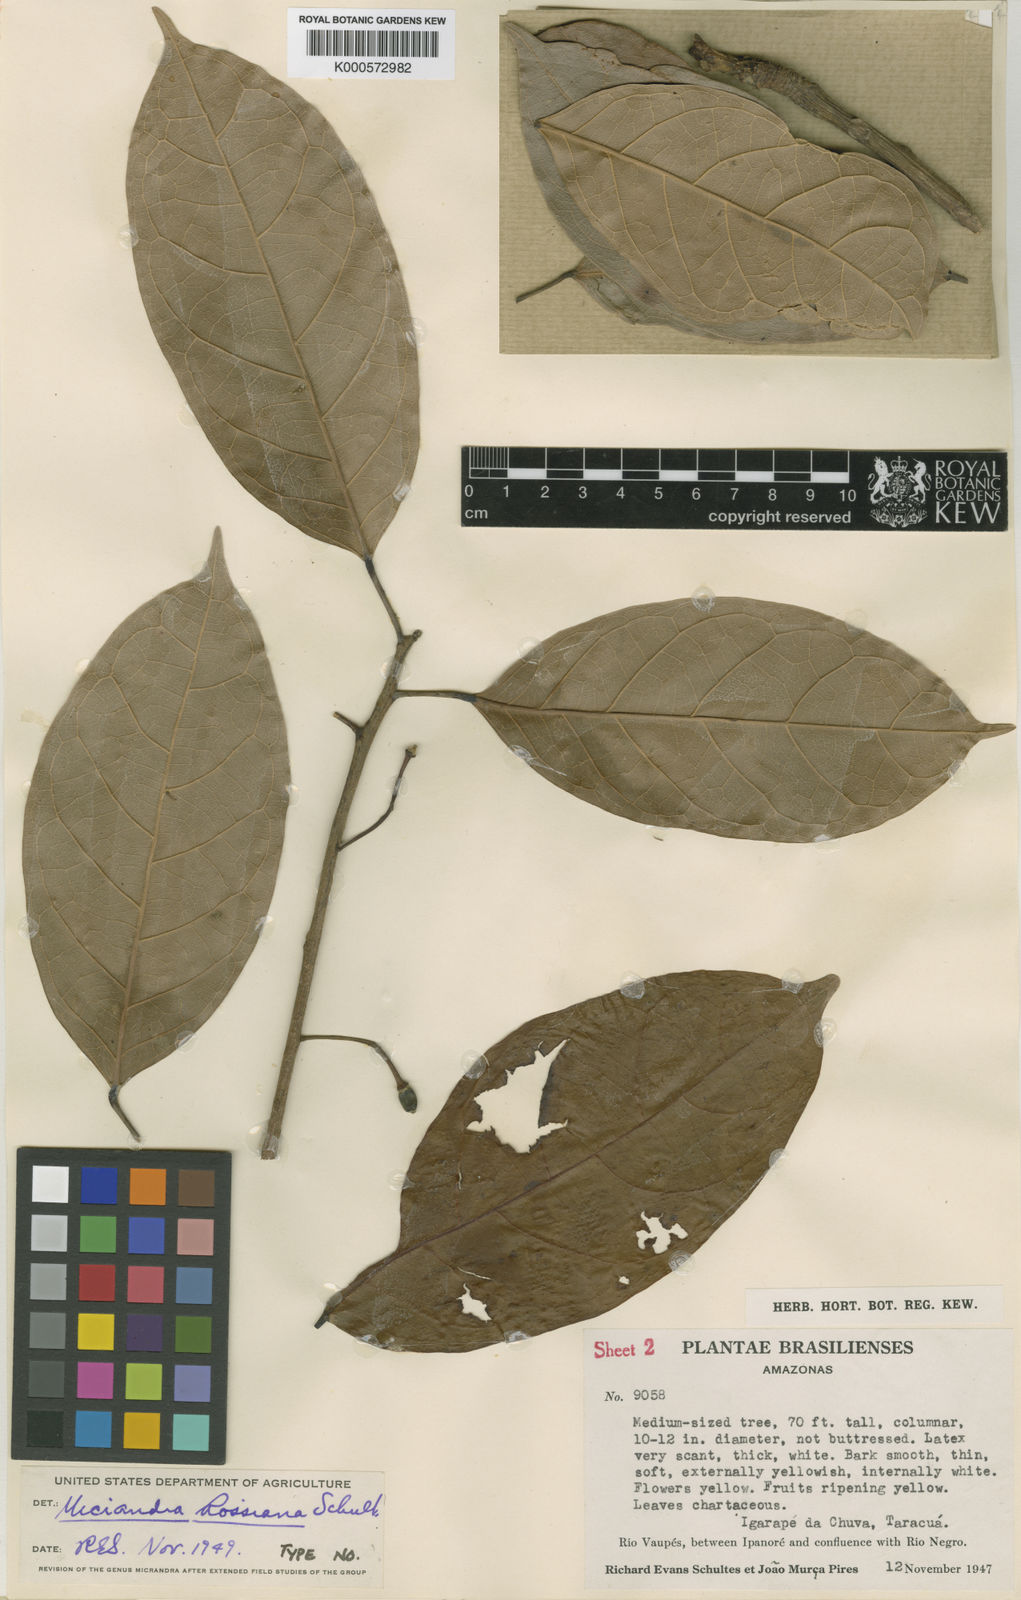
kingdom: Plantae
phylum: Tracheophyta
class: Magnoliopsida
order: Malpighiales
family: Euphorbiaceae
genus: Micrandra
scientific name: Micrandra rossiana
